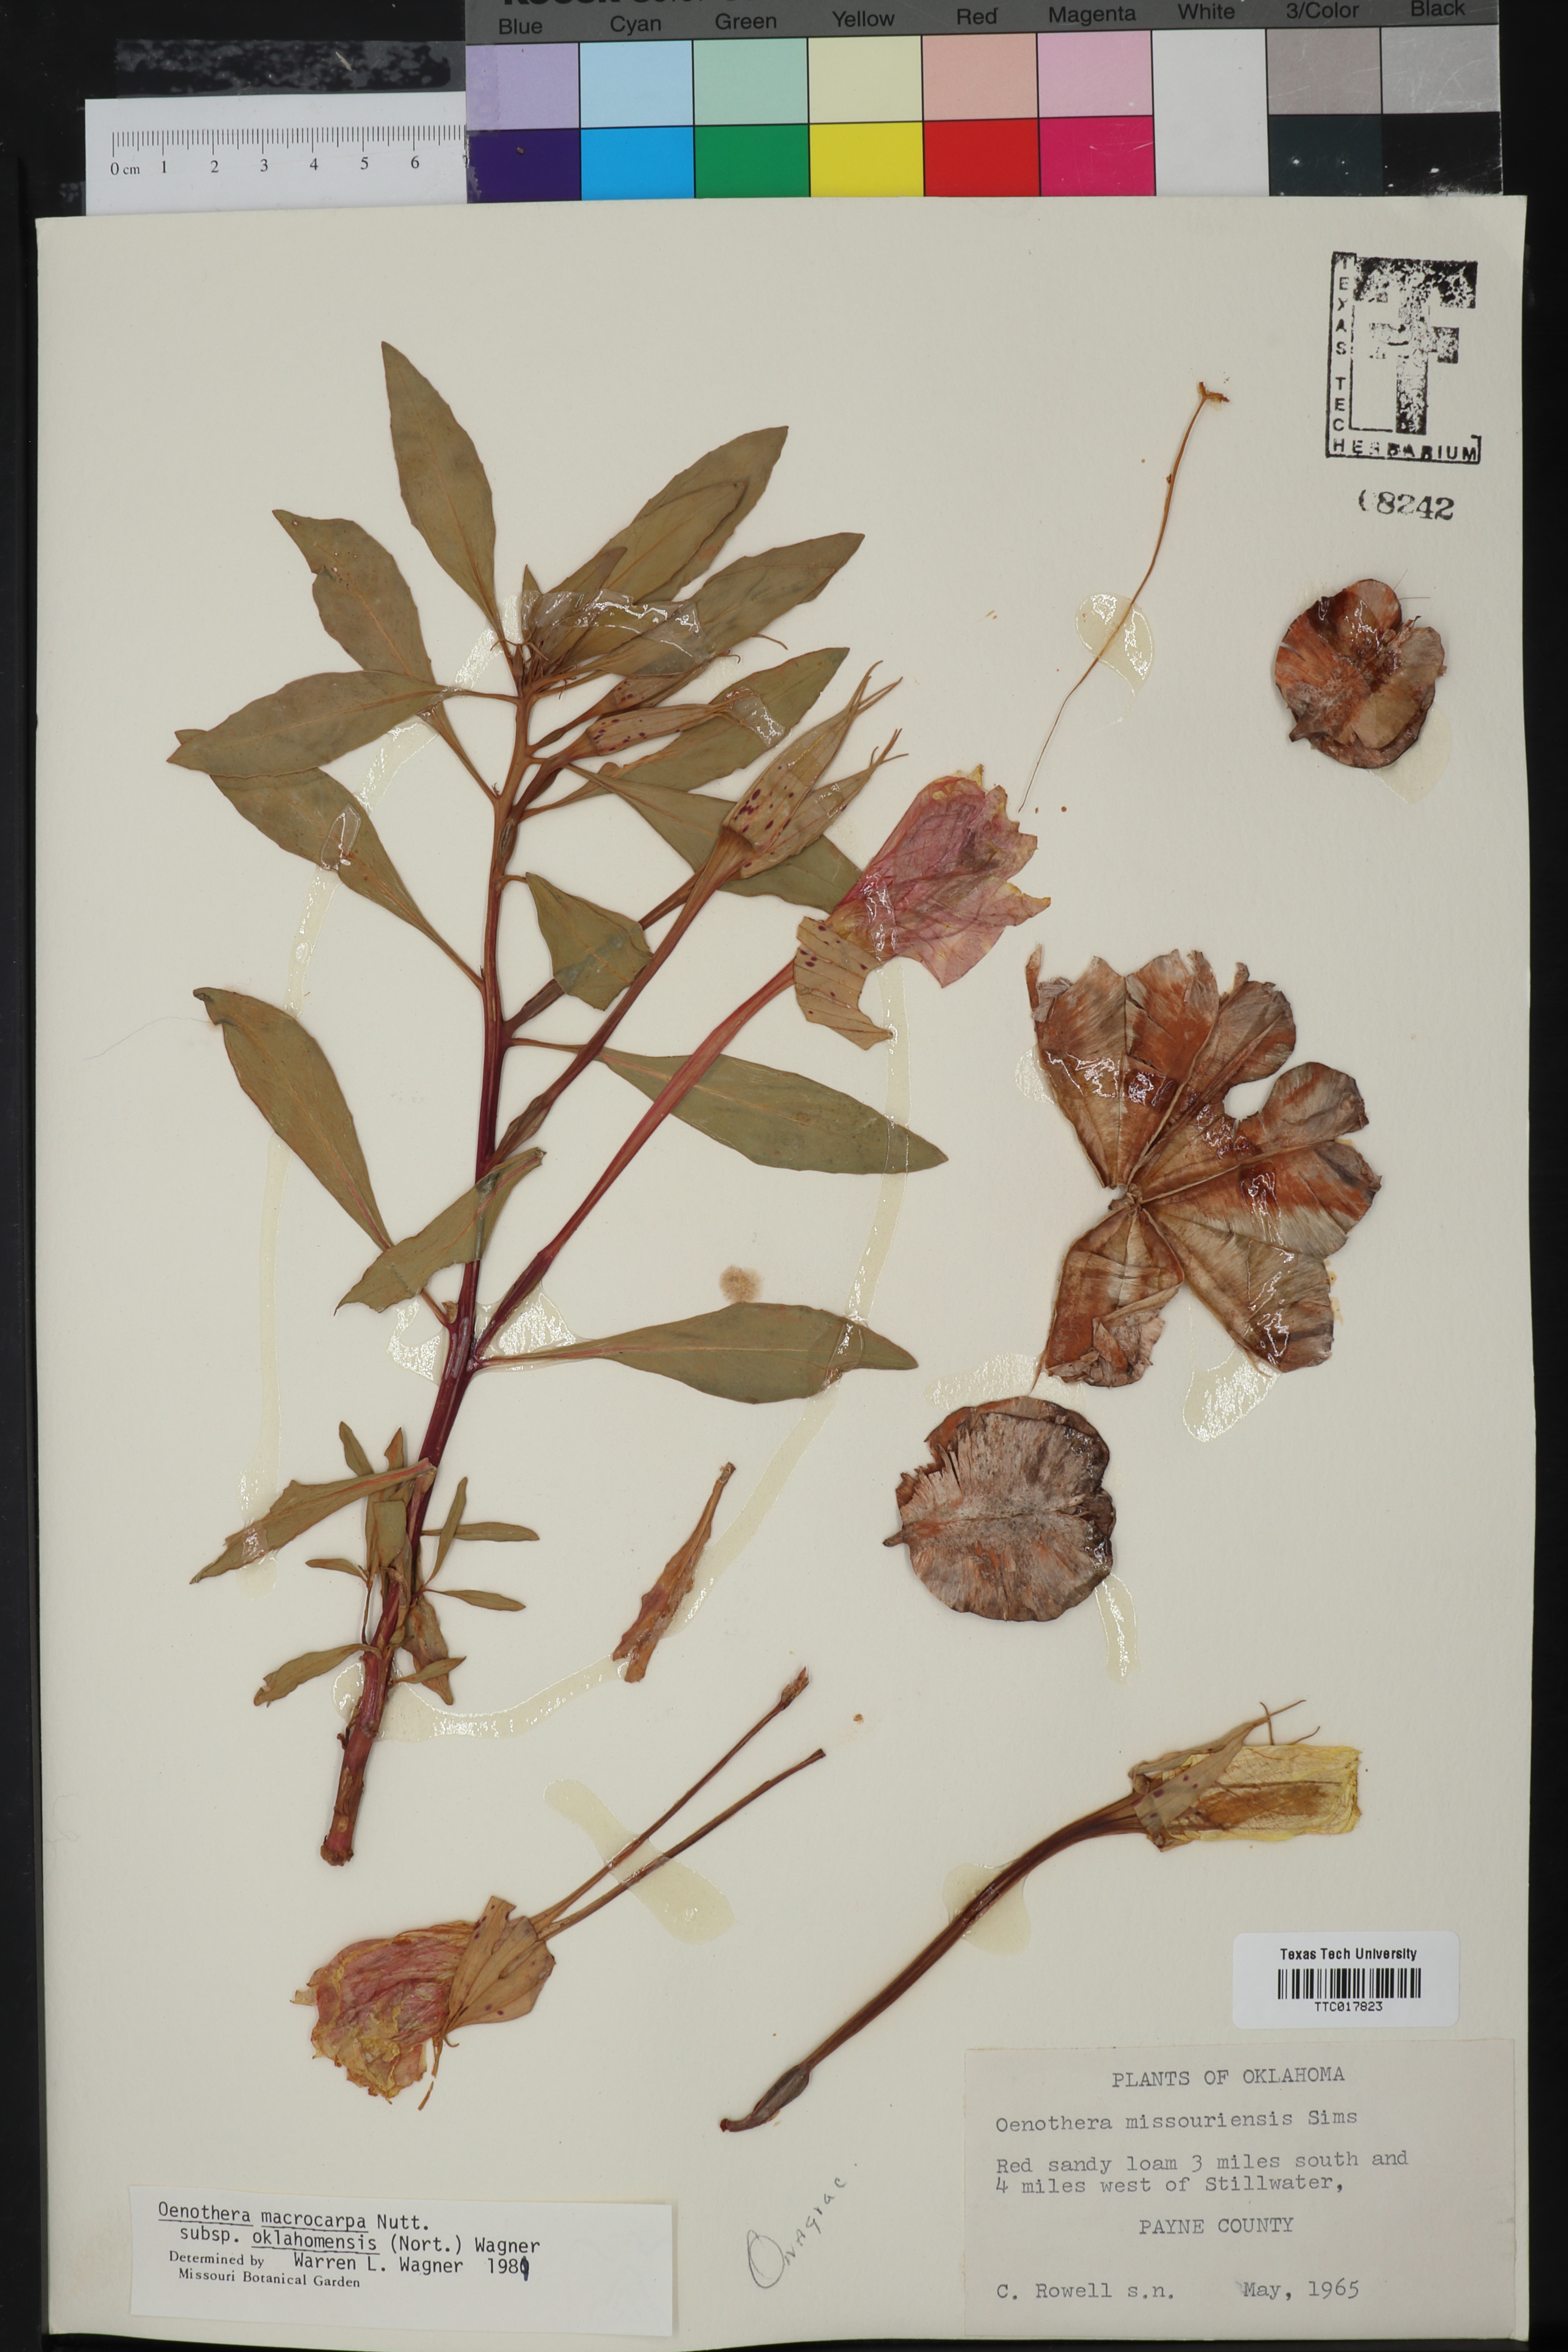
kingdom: Plantae
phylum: Tracheophyta
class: Magnoliopsida
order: Myrtales
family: Onagraceae
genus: Oenothera
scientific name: Oenothera macrocarpa
